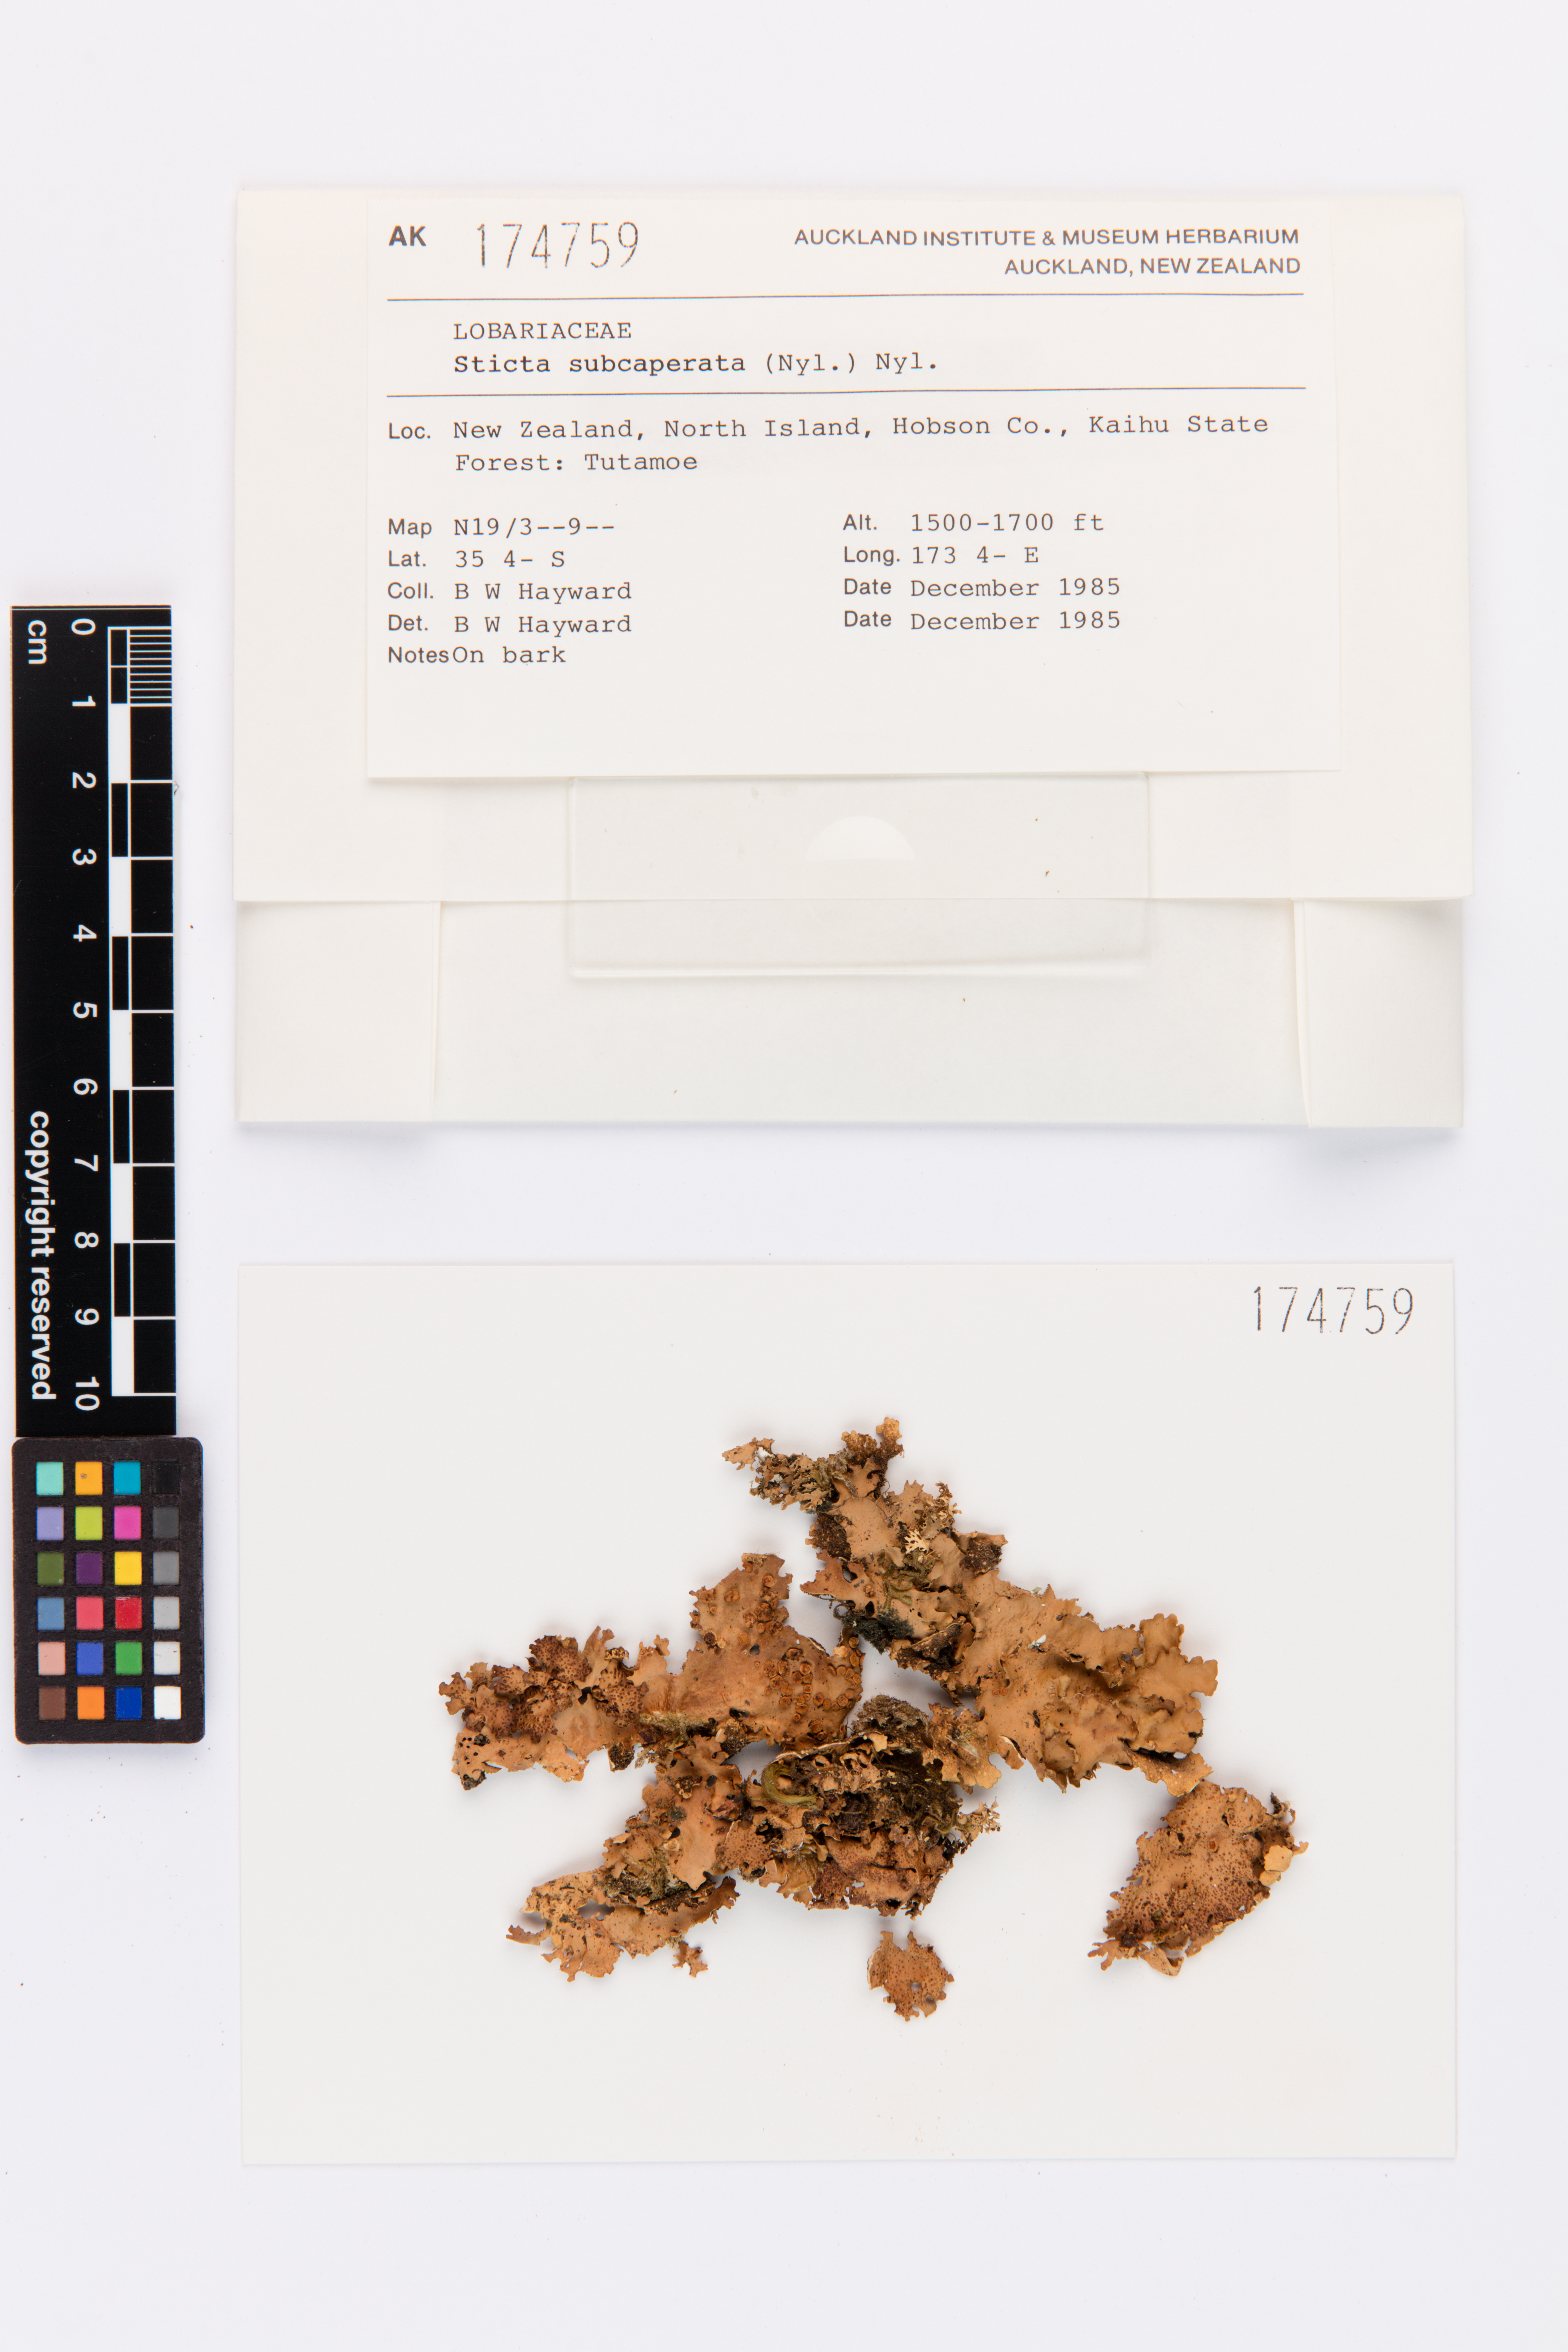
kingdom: Fungi
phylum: Ascomycota
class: Lecanoromycetes
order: Peltigerales
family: Lobariaceae
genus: Sticta
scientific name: Sticta subcaperata
